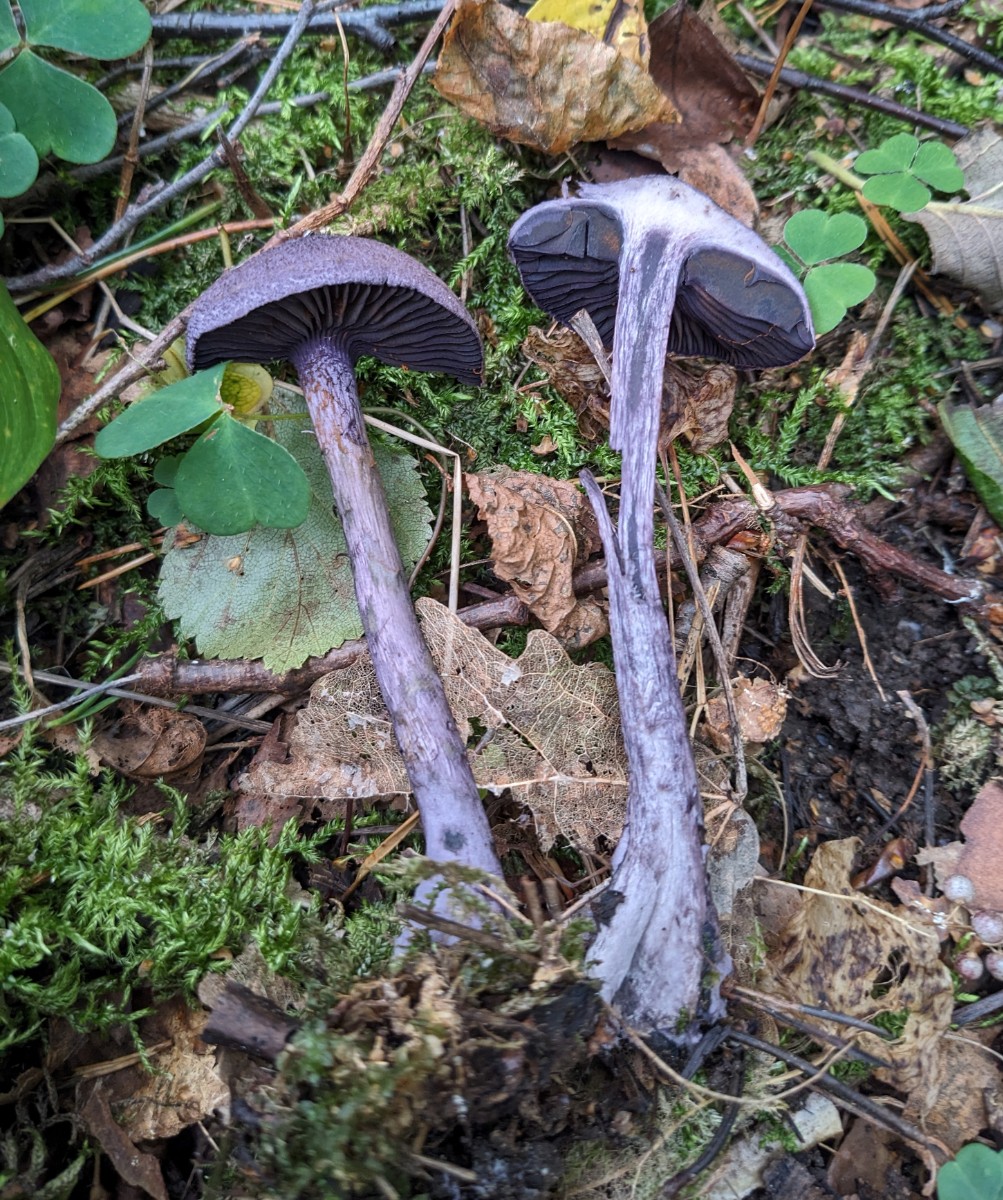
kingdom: Fungi
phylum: Basidiomycota
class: Agaricomycetes
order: Agaricales
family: Cortinariaceae
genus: Cortinarius
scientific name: Cortinarius violaceus
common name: mørkviolet slørhat
